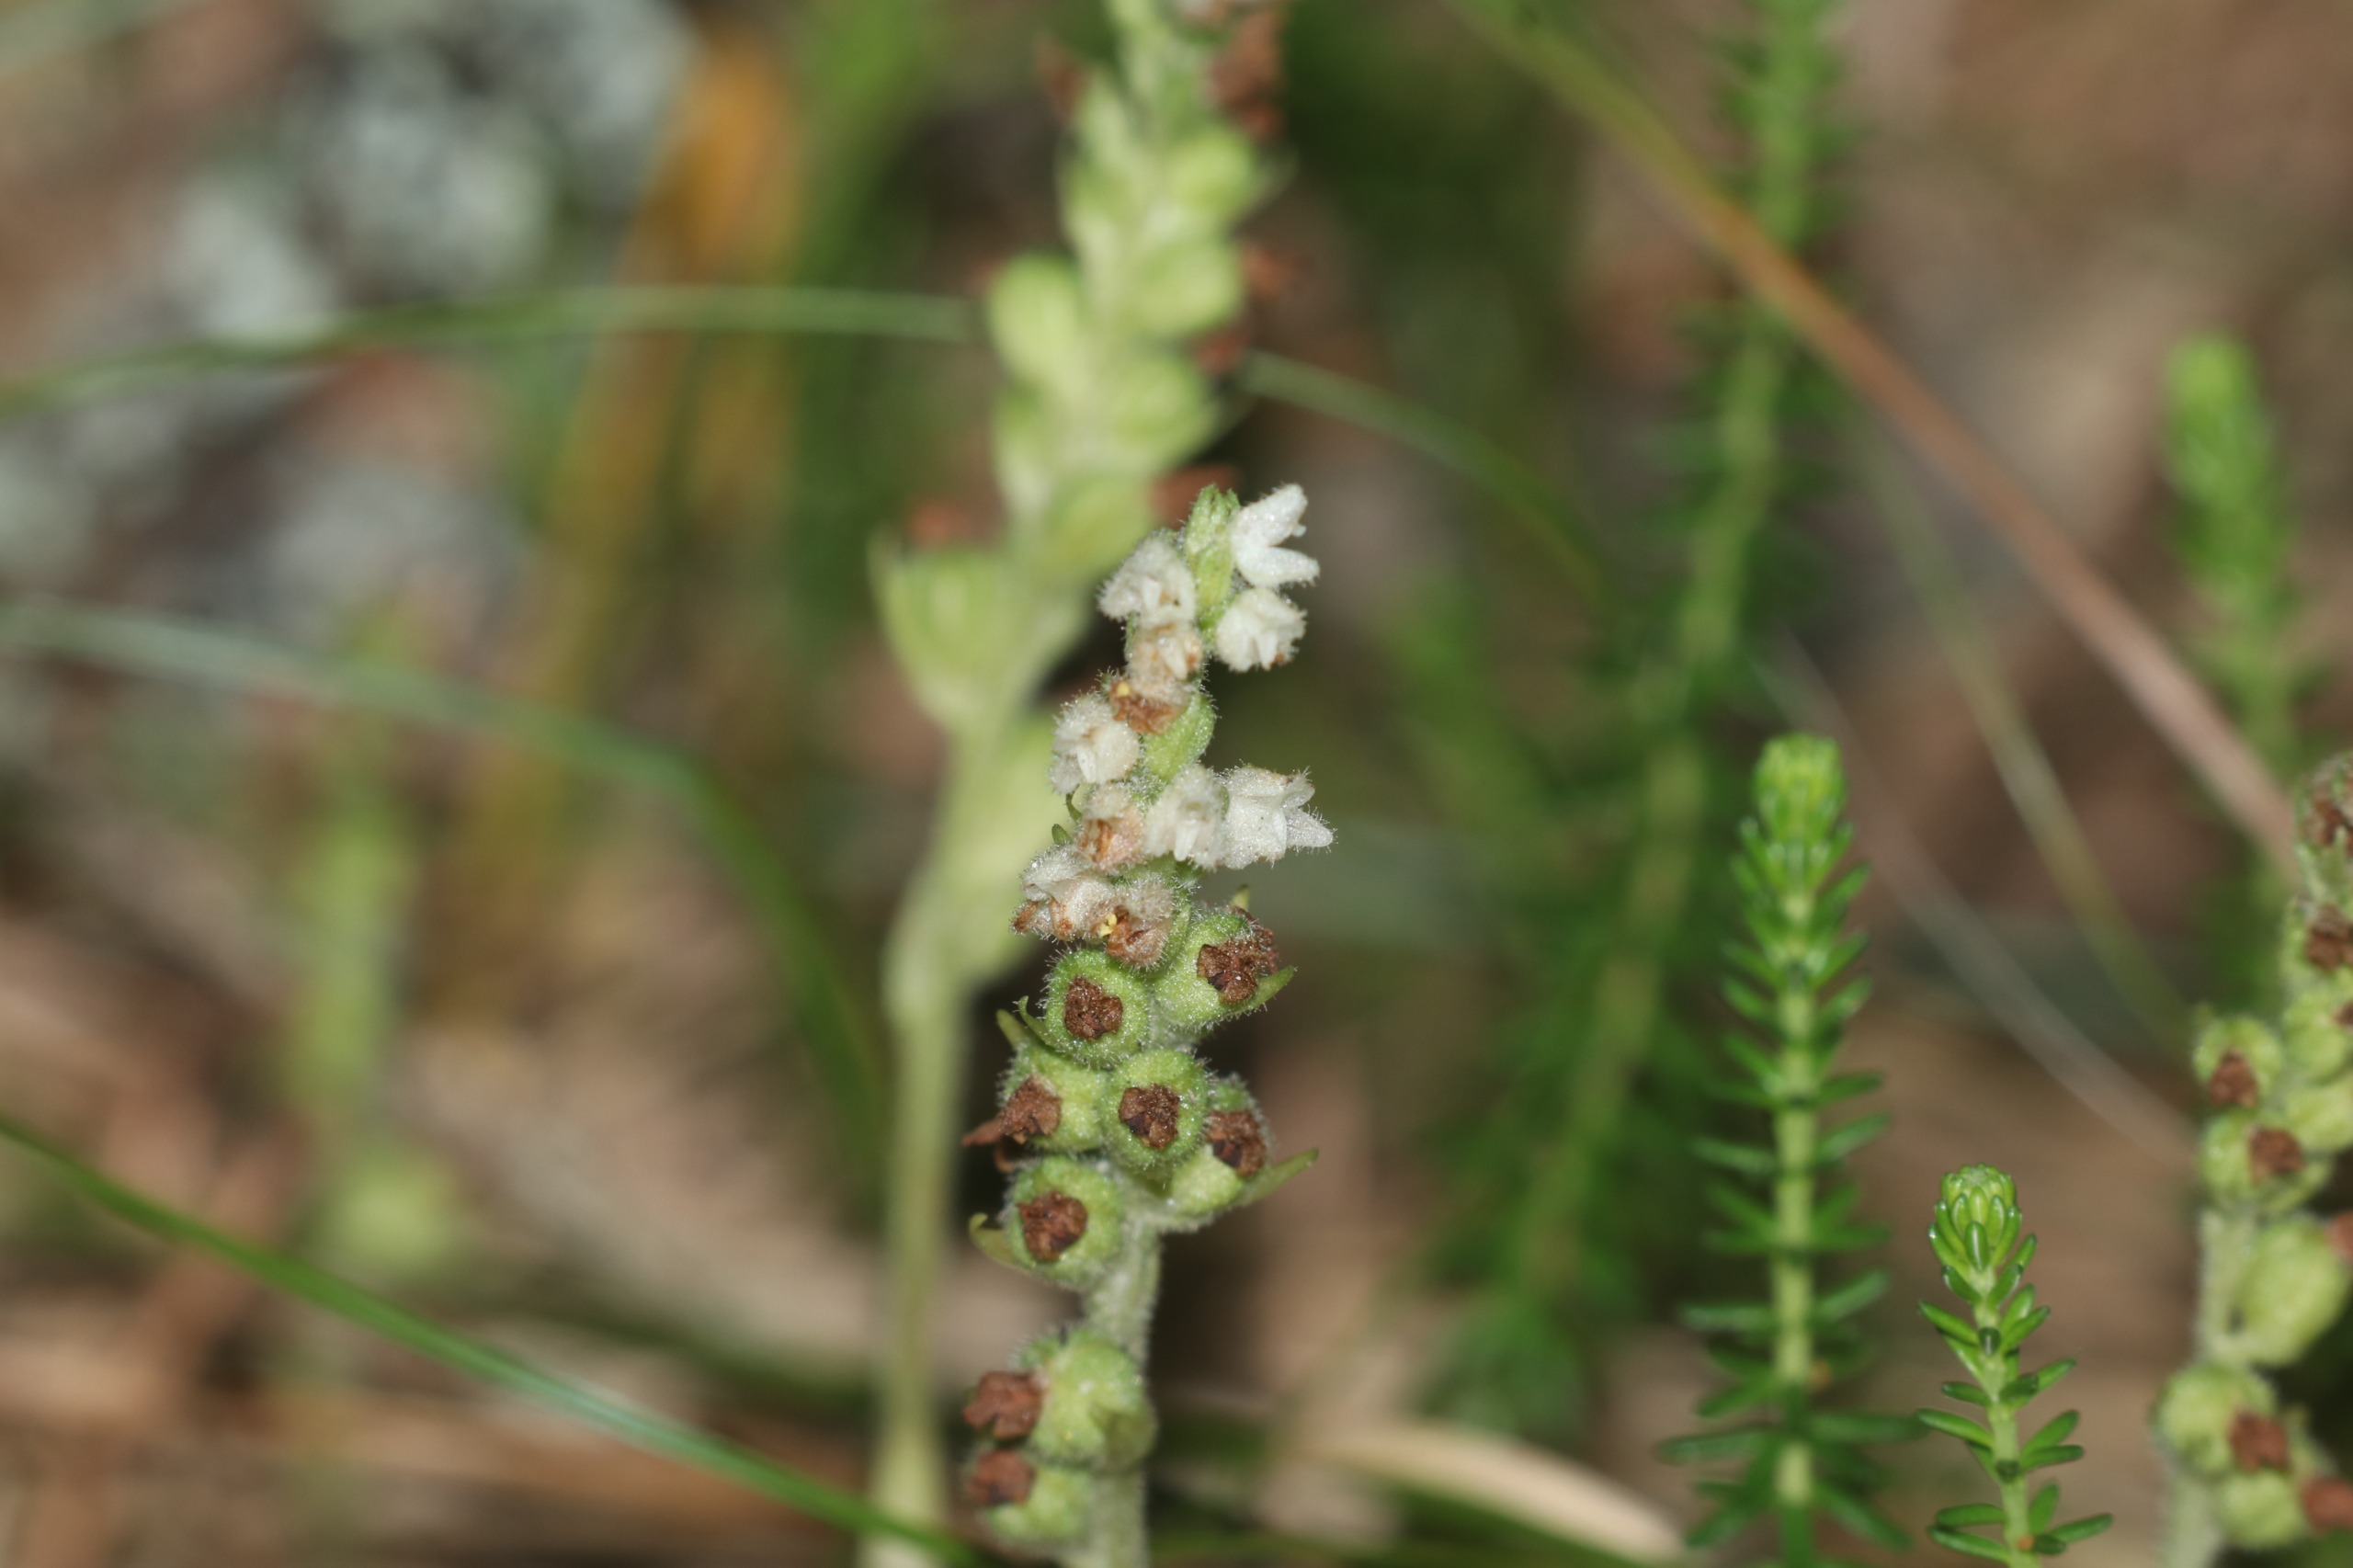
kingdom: Plantae
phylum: Tracheophyta
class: Liliopsida
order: Asparagales
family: Orchidaceae
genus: Goodyera
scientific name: Goodyera repens
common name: Knærod
